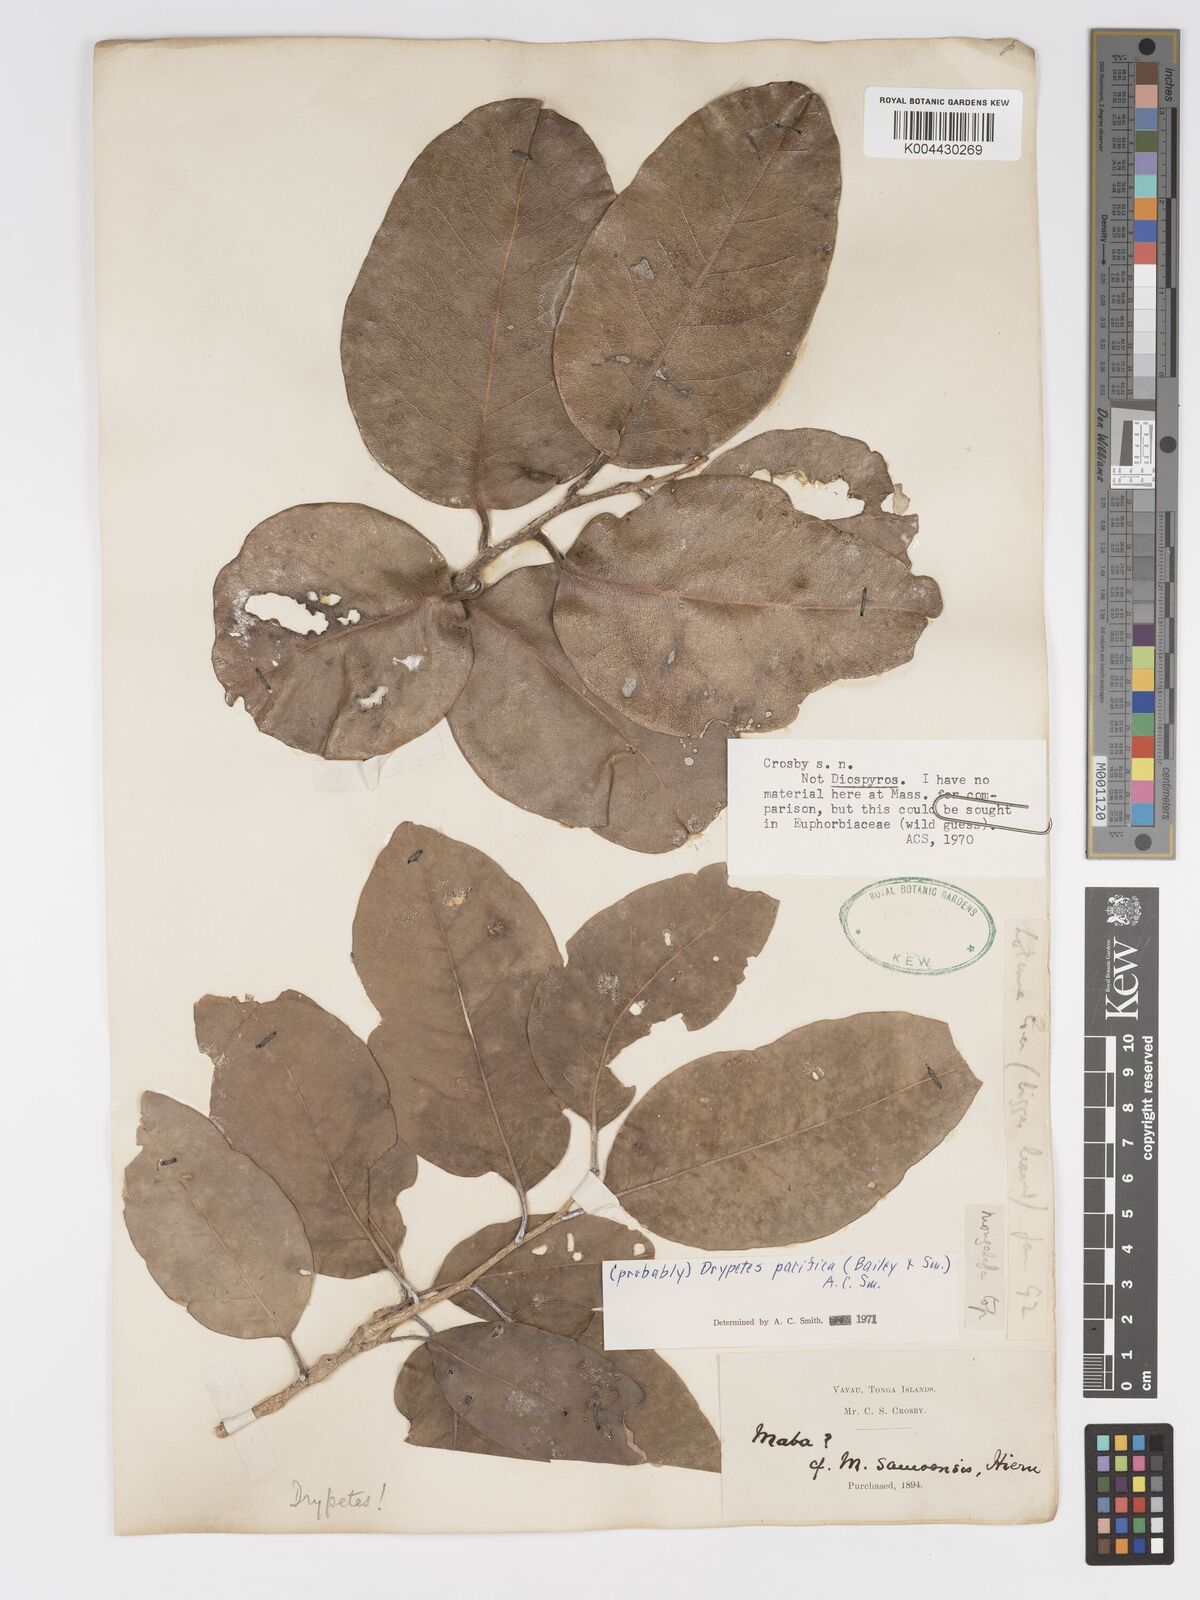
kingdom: Plantae
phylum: Tracheophyta
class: Magnoliopsida
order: Malpighiales
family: Putranjivaceae
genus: Drypetes
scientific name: Drypetes pacifica
